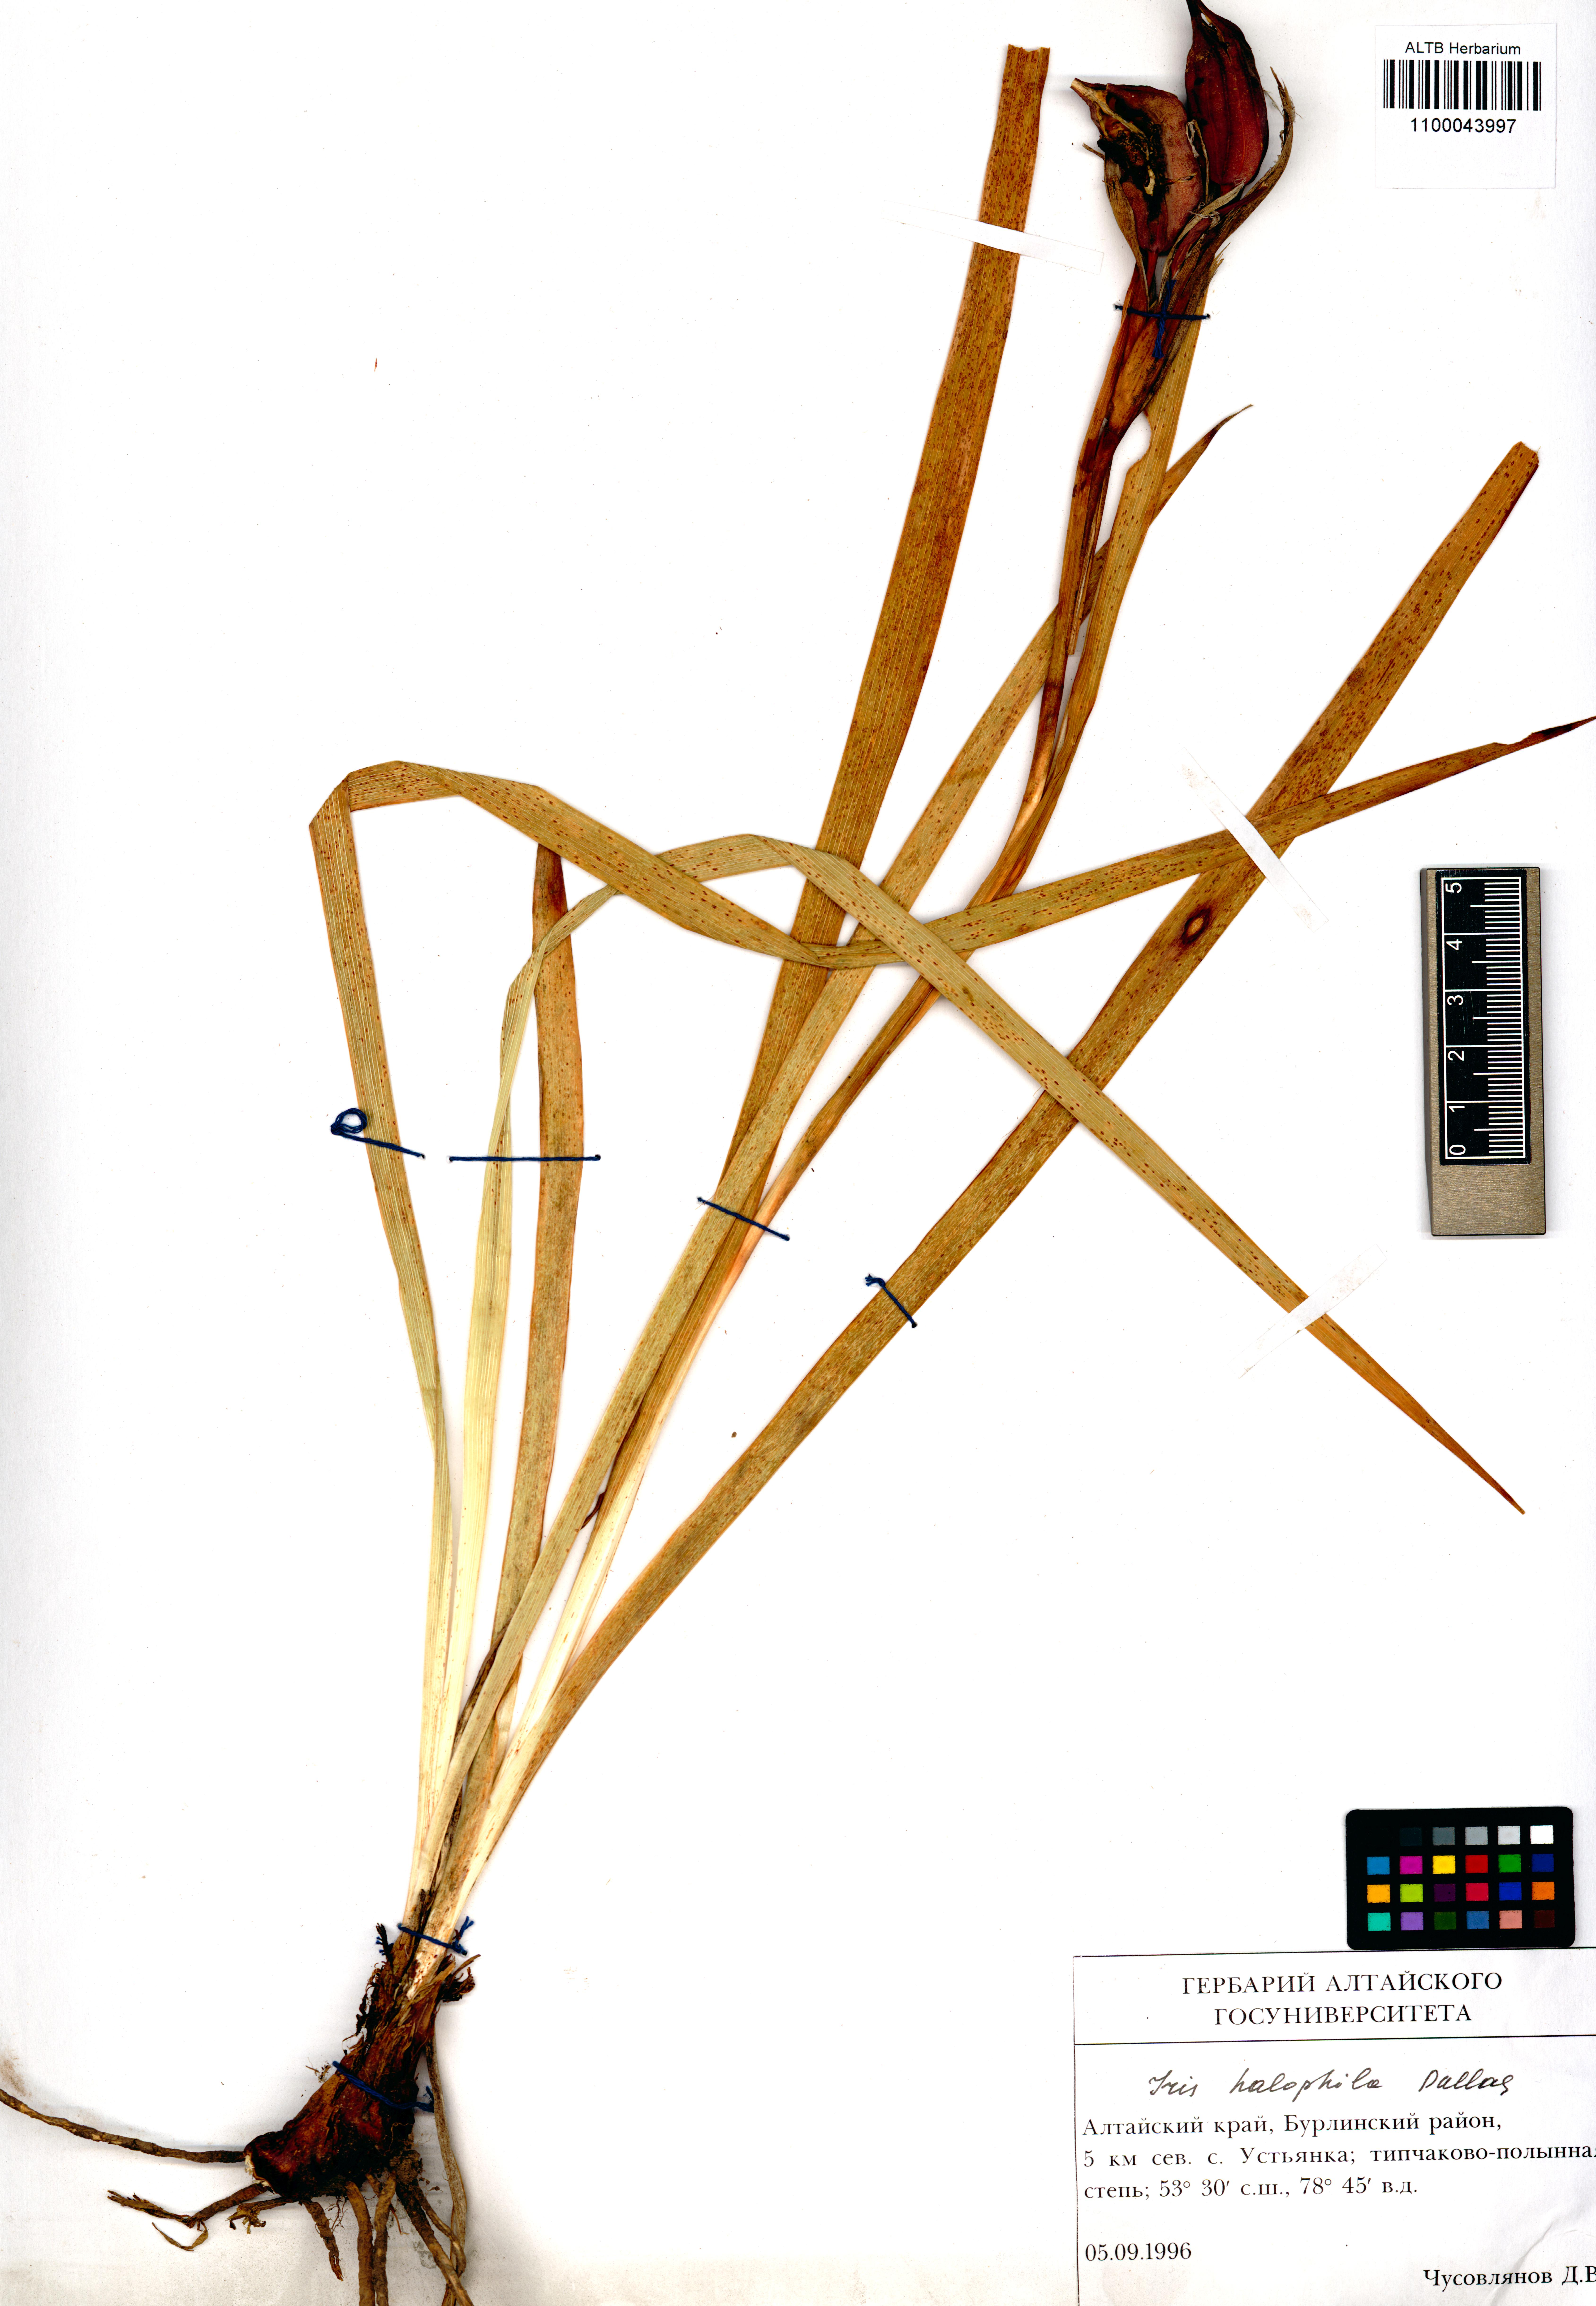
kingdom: Plantae
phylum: Tracheophyta
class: Liliopsida
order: Asparagales
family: Iridaceae
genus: Iris
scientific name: Iris halophila
